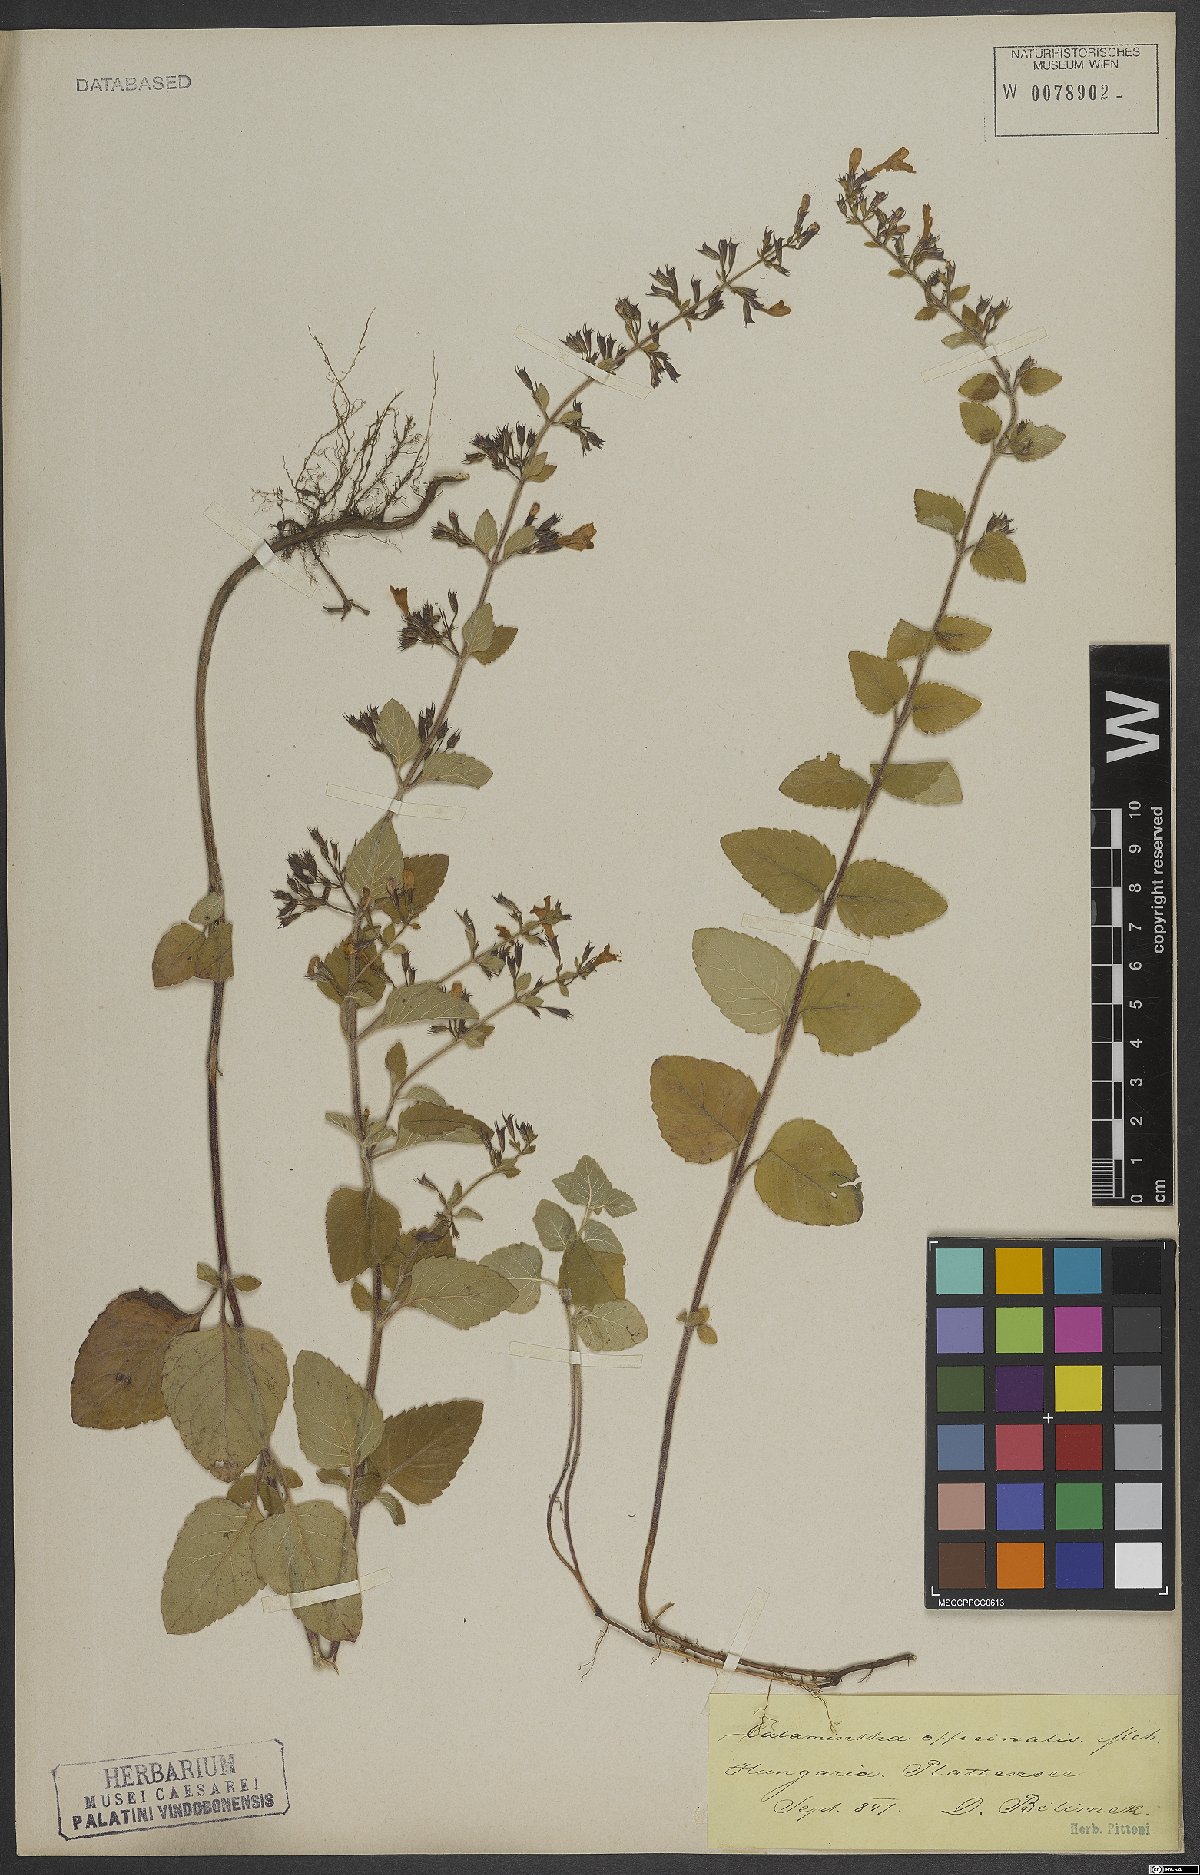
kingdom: Plantae
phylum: Tracheophyta
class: Magnoliopsida
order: Lamiales
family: Lamiaceae
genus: Clinopodium
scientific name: Clinopodium nepeta
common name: Lesser calamint
